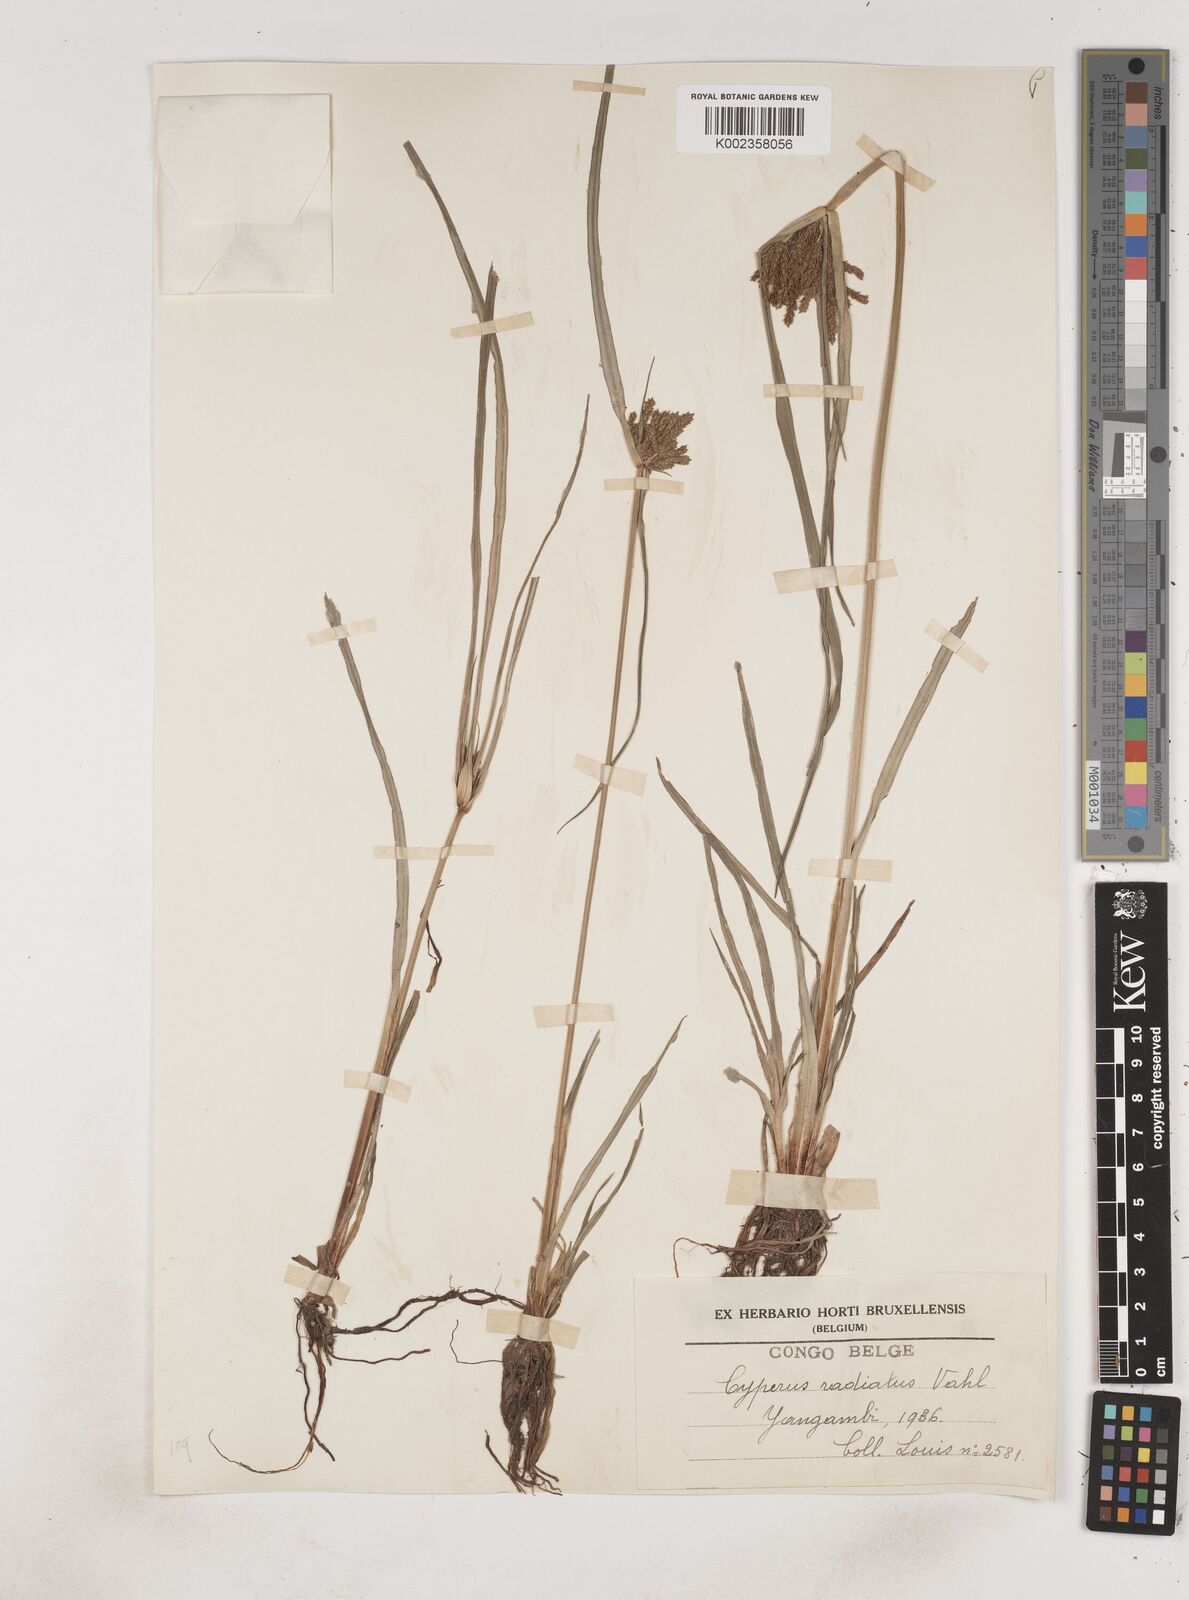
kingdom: Plantae
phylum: Tracheophyta
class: Liliopsida
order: Poales
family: Cyperaceae
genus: Cyperus
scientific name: Cyperus imbricatus
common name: Shingle flatsedge
